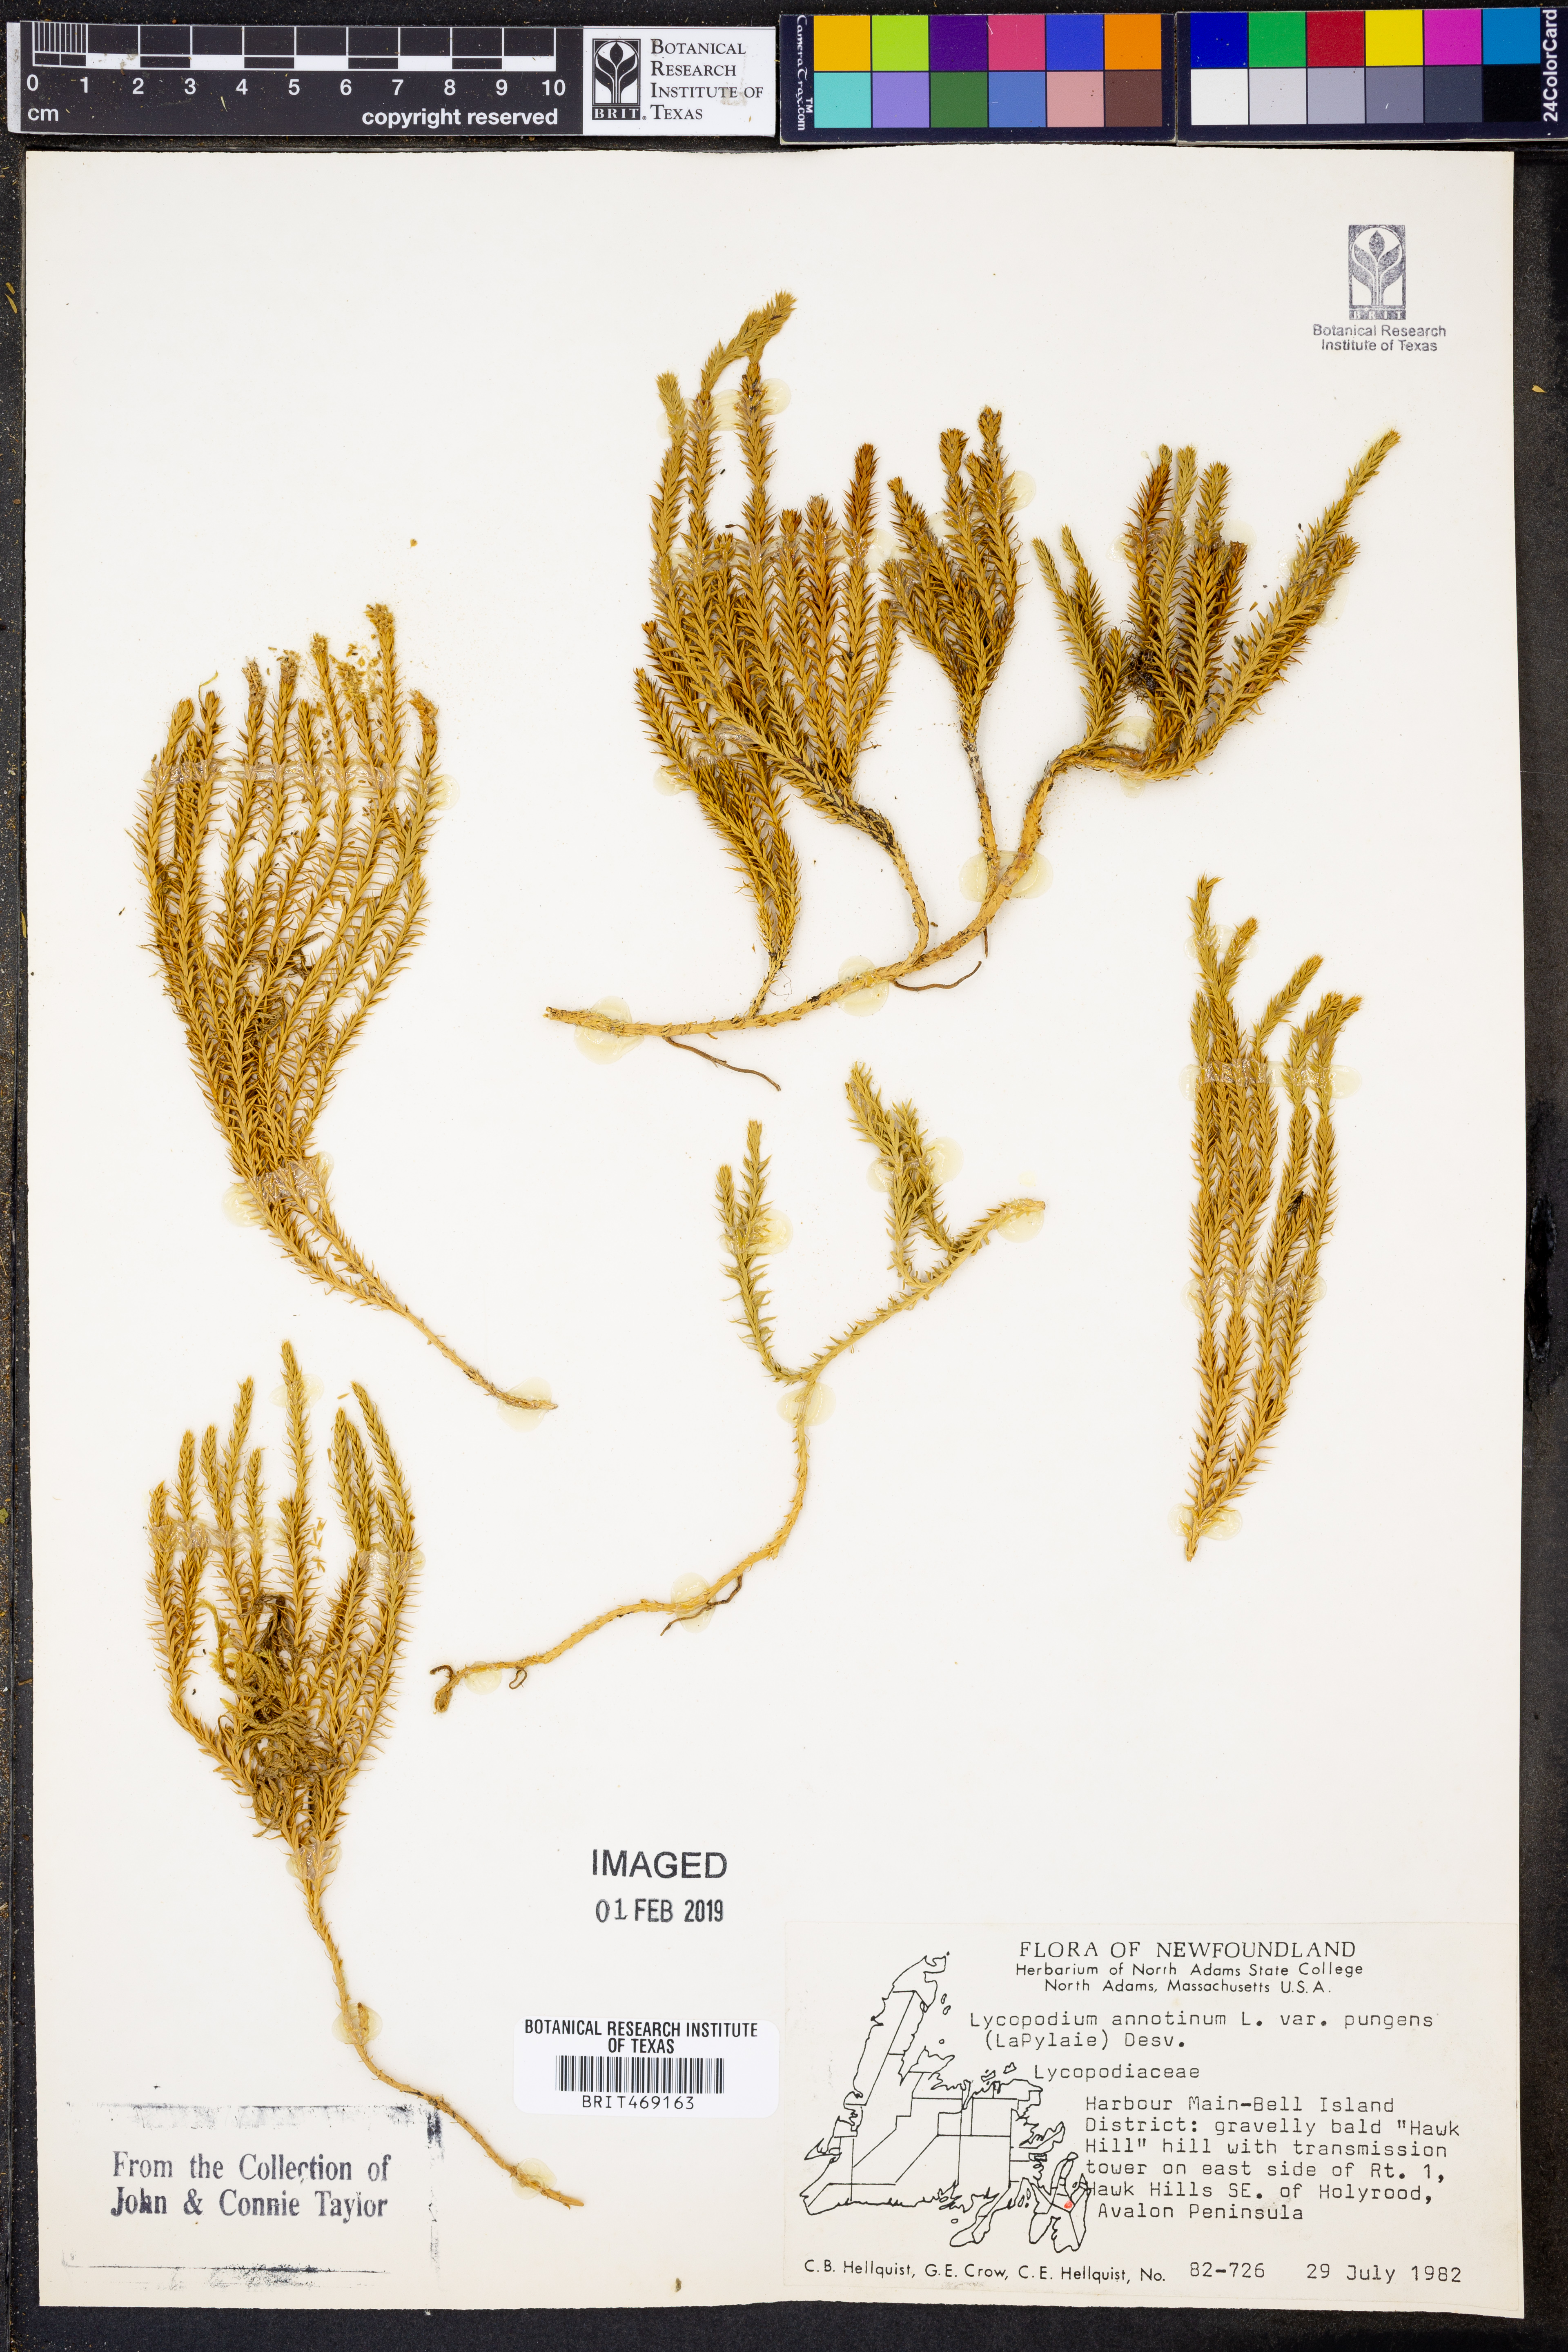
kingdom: Plantae
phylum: Tracheophyta
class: Lycopodiopsida
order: Lycopodiales
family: Lycopodiaceae
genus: Spinulum
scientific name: Spinulum annotinum
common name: Interrupted club-moss
